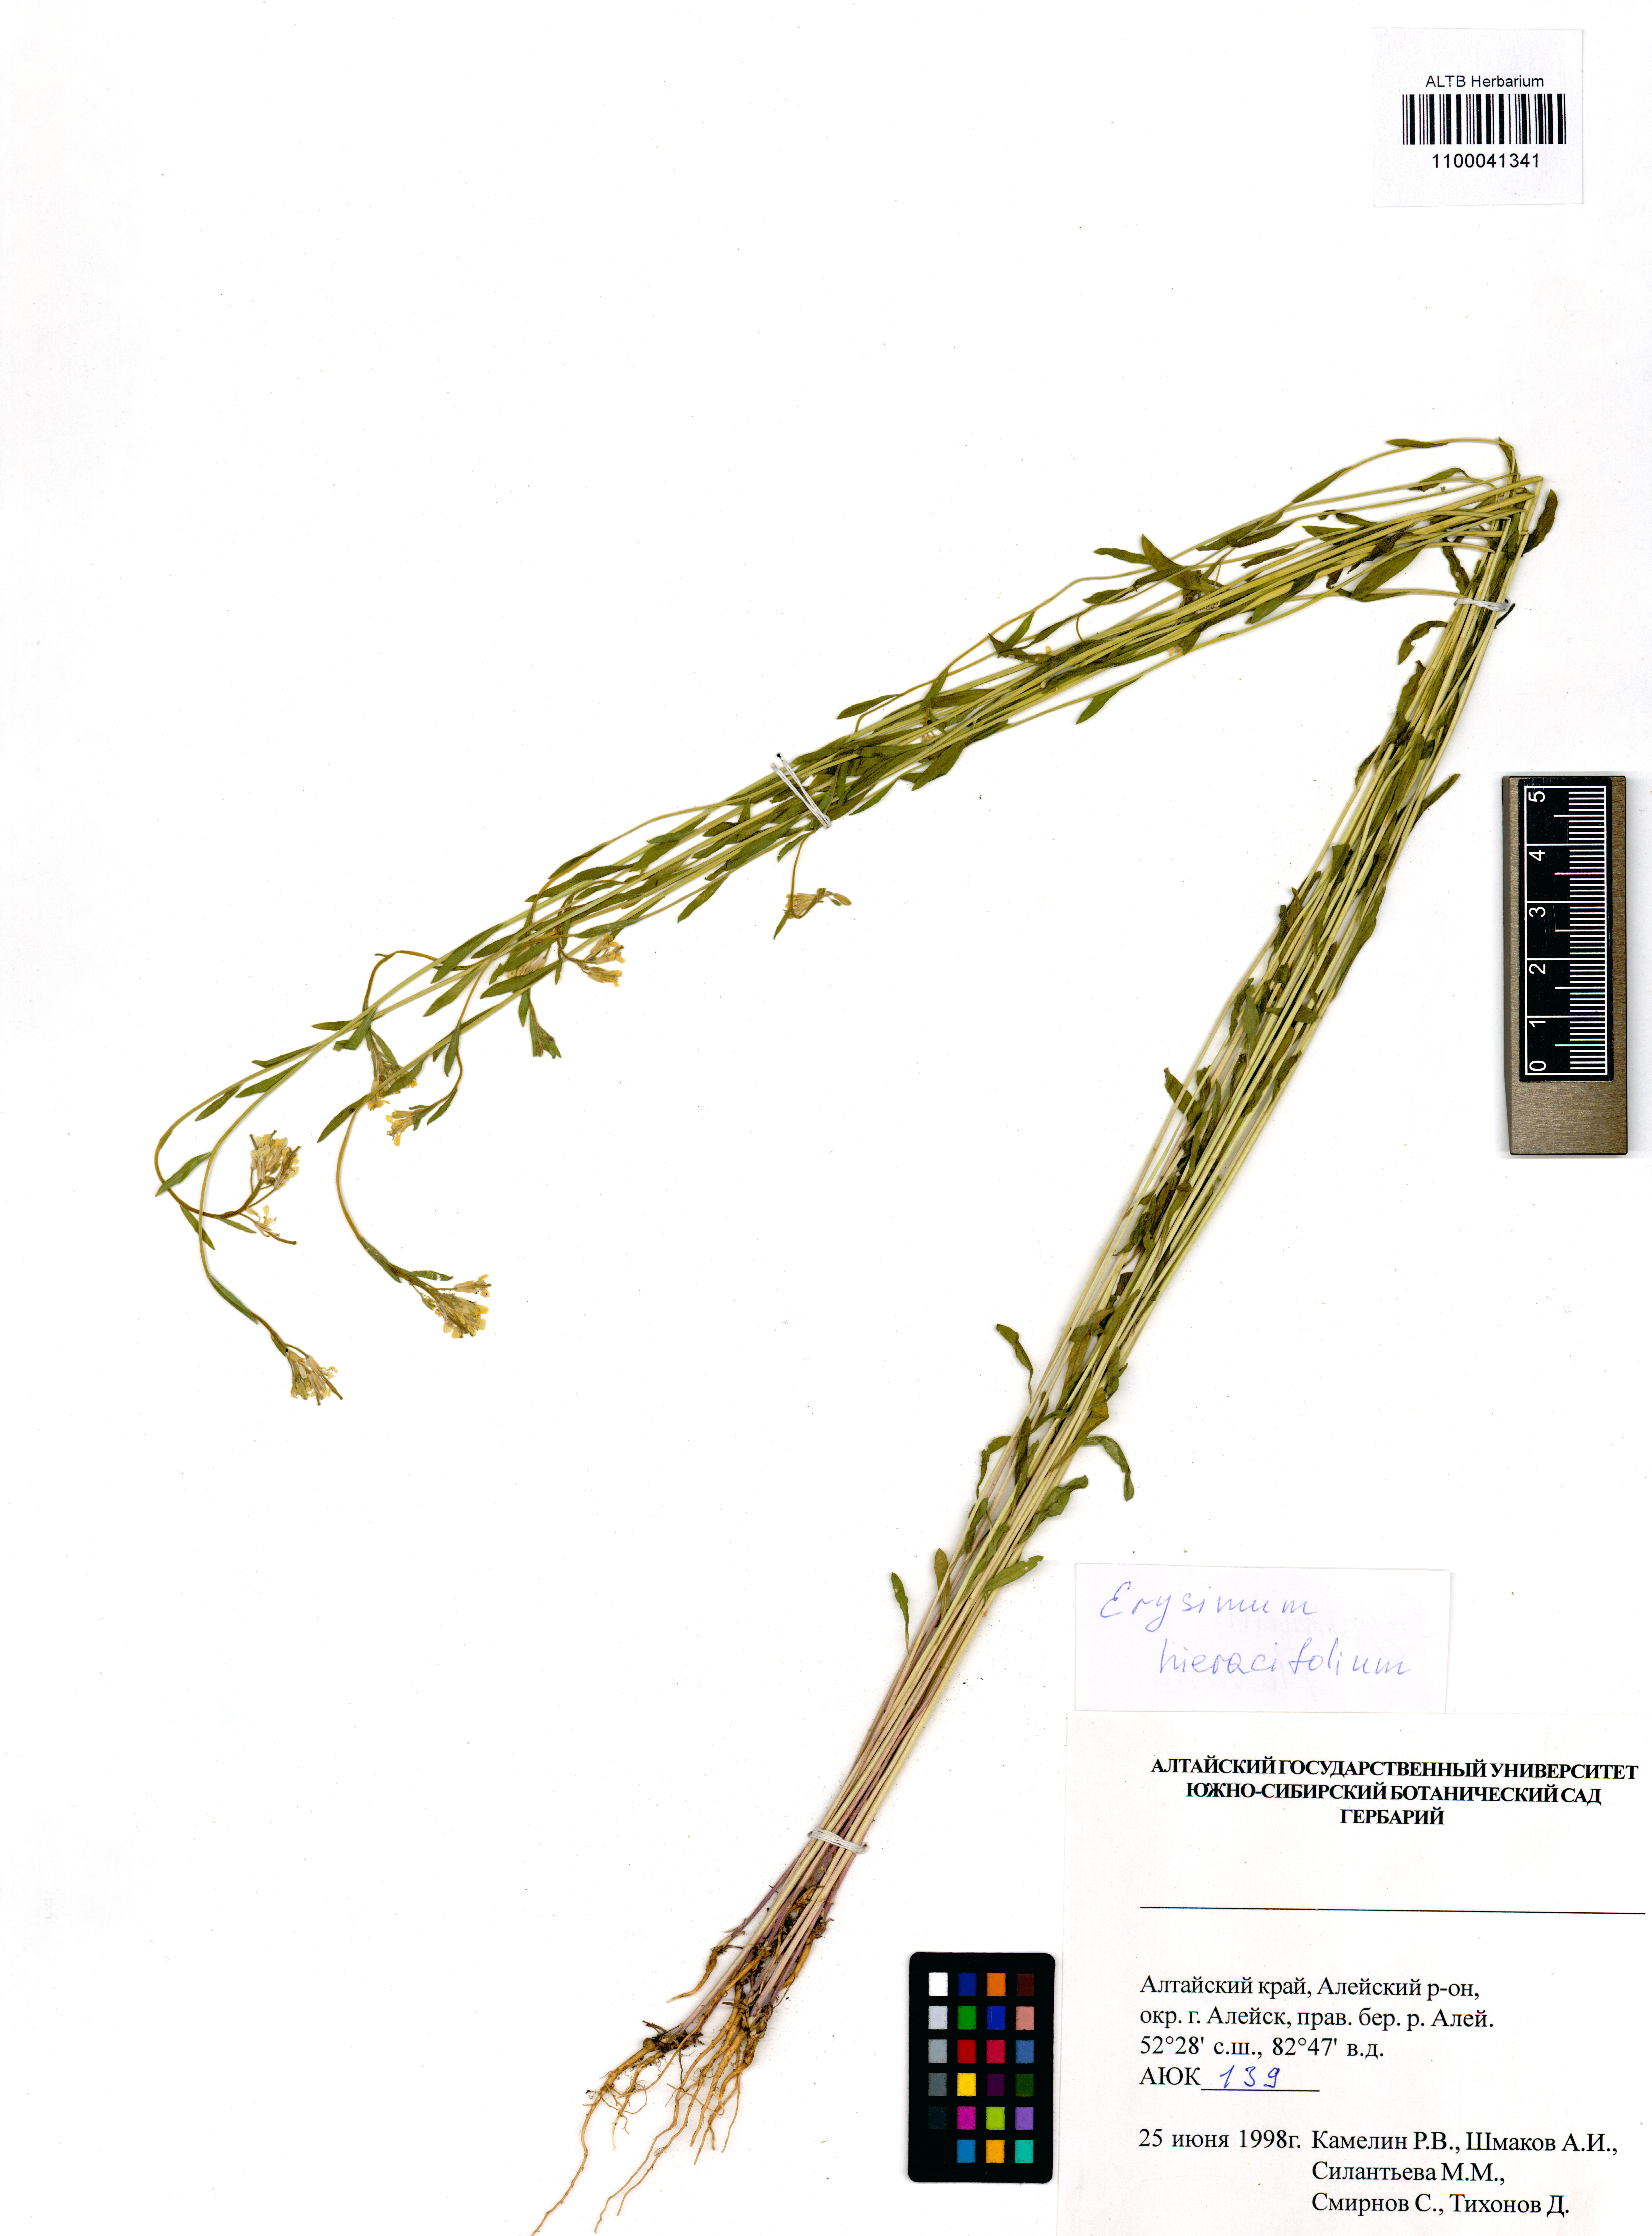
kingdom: Plantae
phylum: Tracheophyta
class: Magnoliopsida
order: Brassicales
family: Brassicaceae
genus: Erysimum
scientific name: Erysimum hieraciifolium
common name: European wallflower
